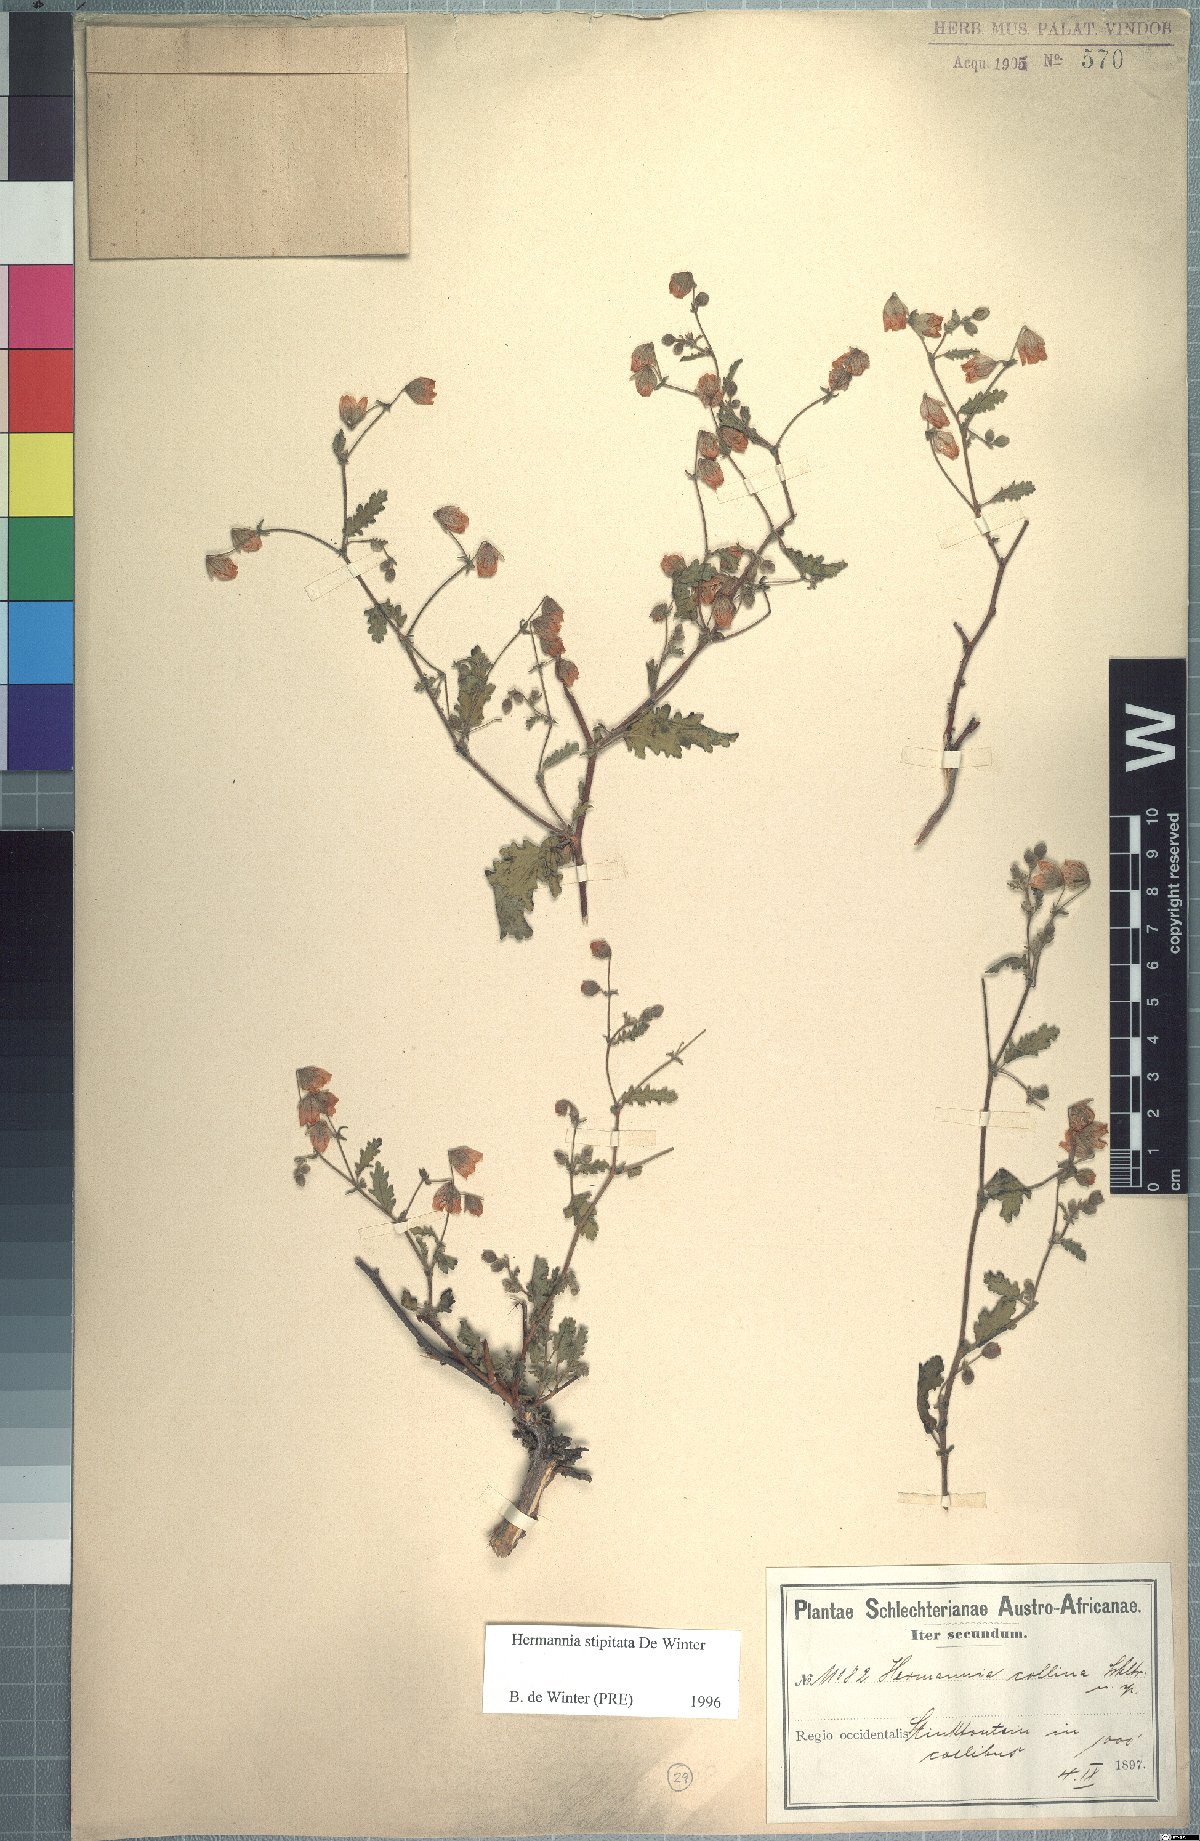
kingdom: Plantae
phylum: Tracheophyta
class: Magnoliopsida
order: Malvales
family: Malvaceae
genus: Hermannia
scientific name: Hermannia stipitata
